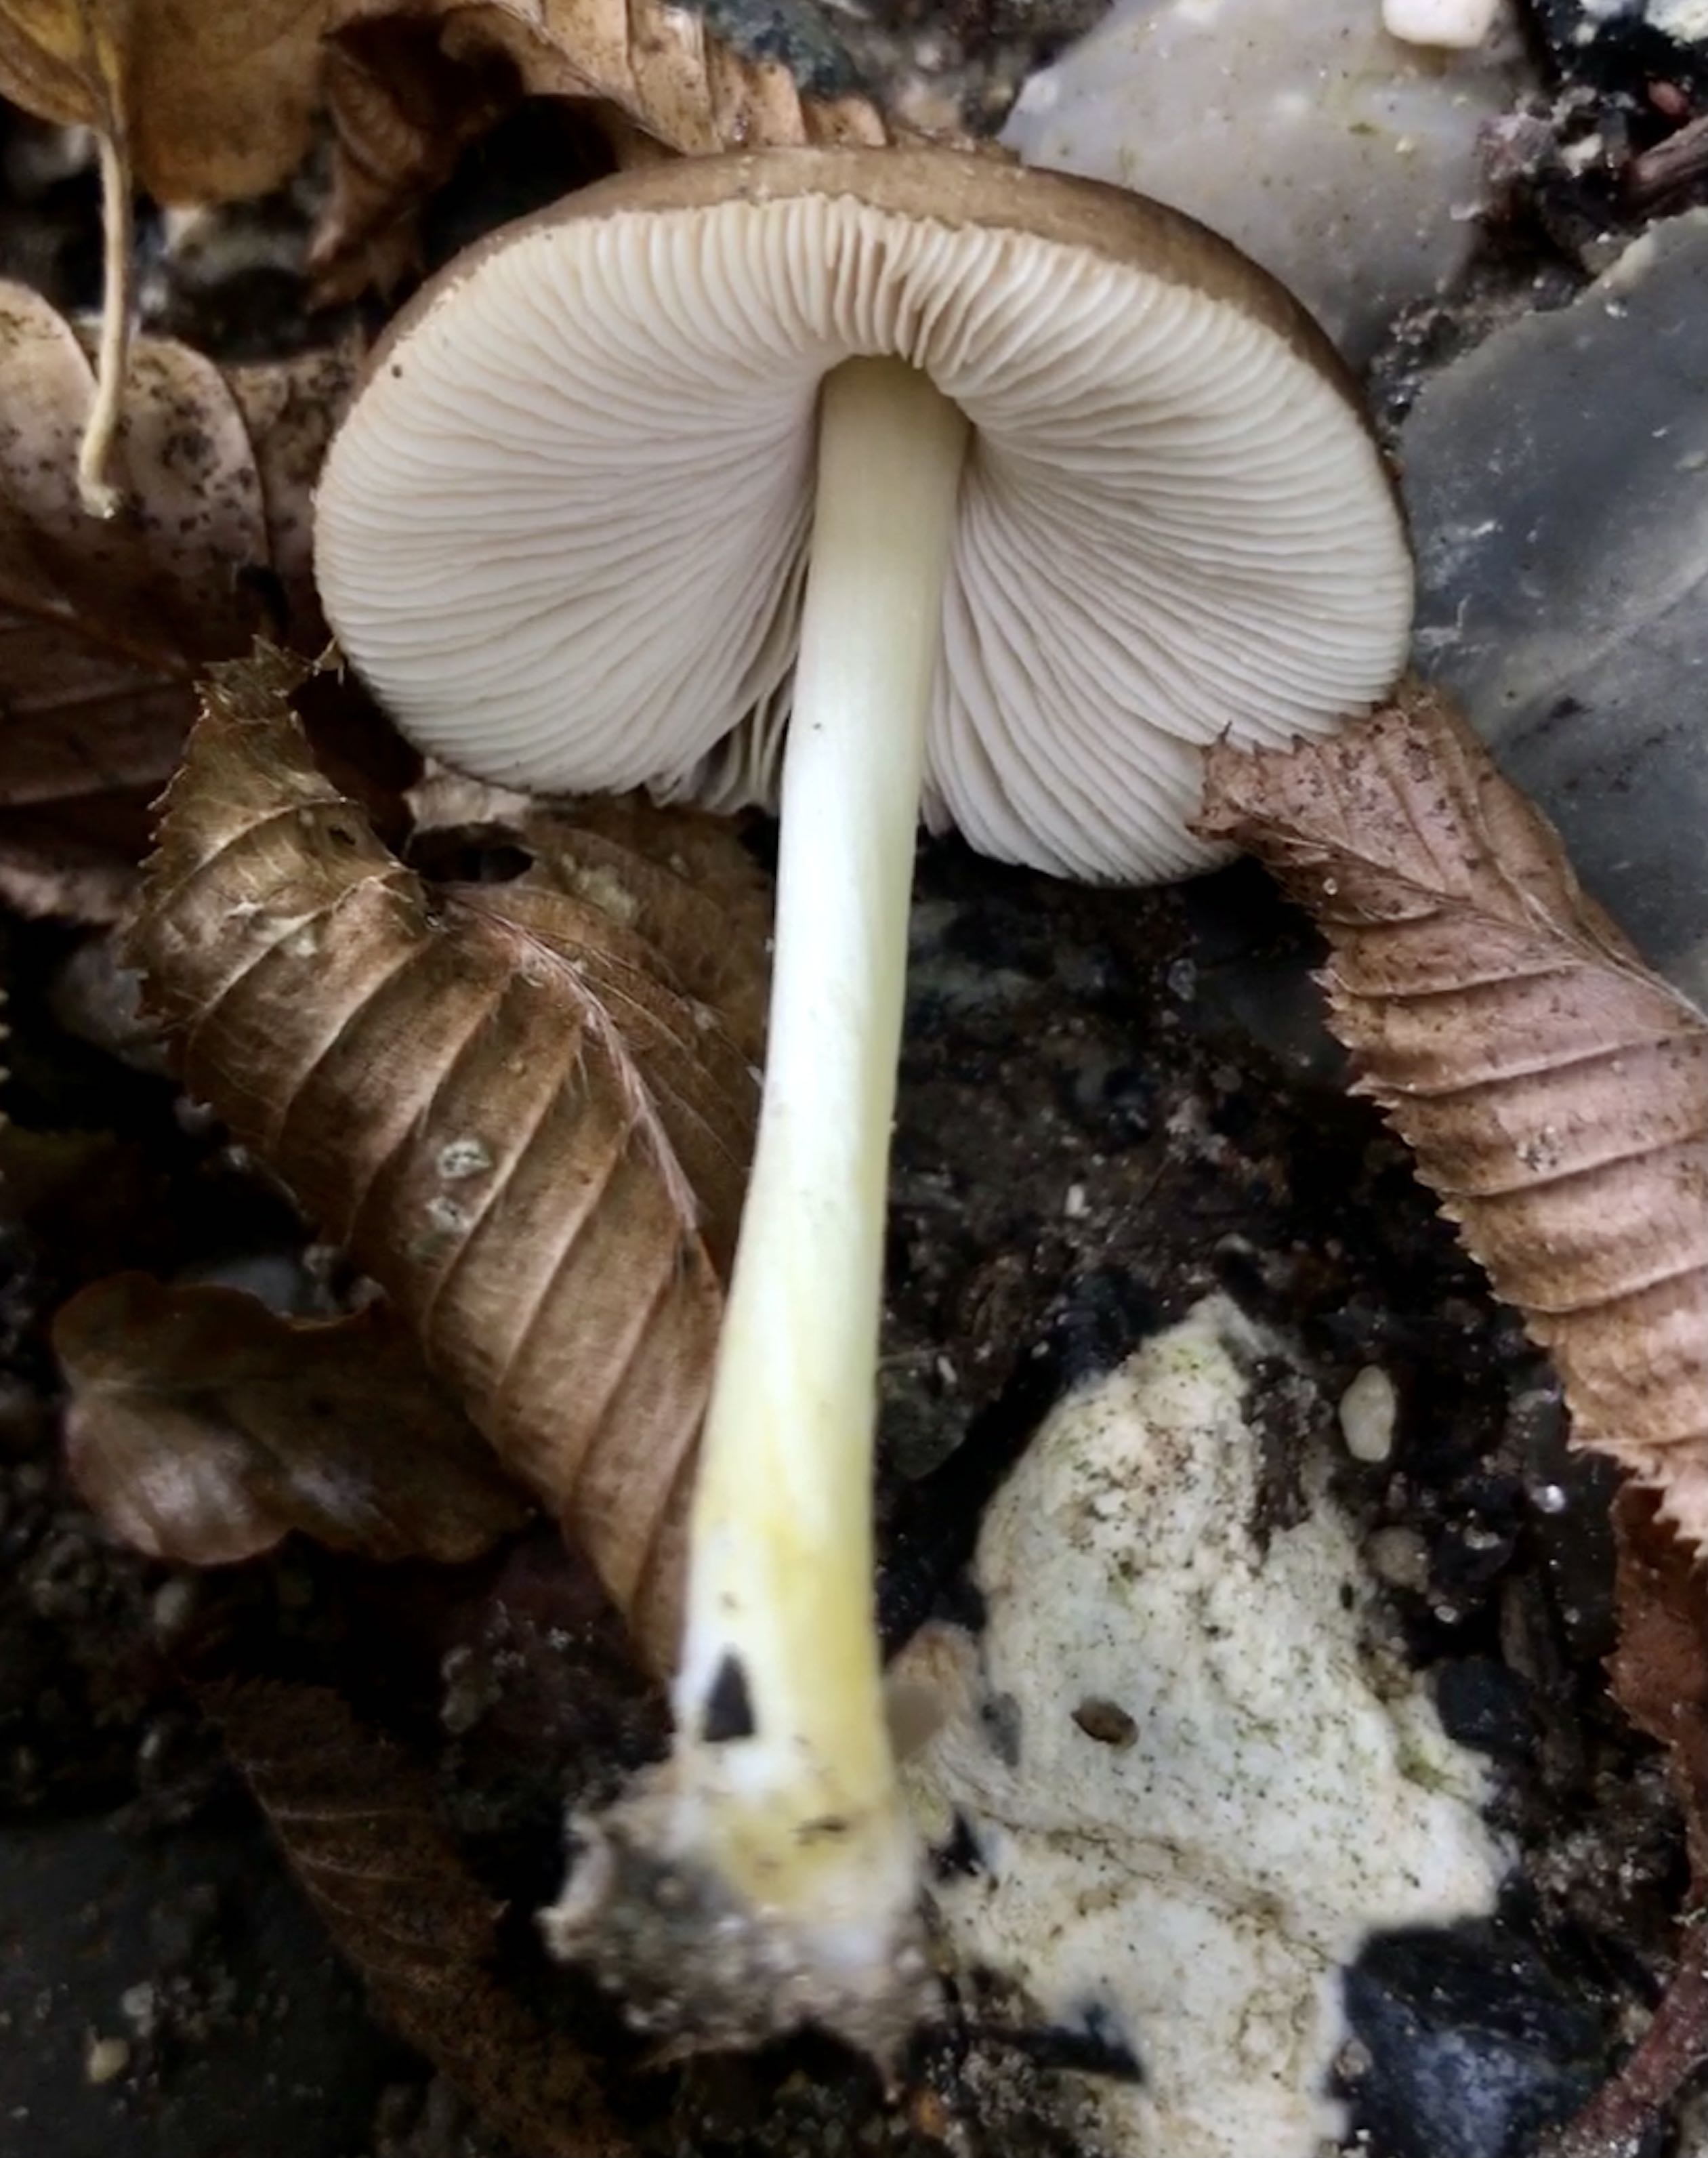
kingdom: Fungi
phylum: Basidiomycota
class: Agaricomycetes
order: Agaricales
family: Pluteaceae
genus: Pluteus
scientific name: Pluteus romellii
